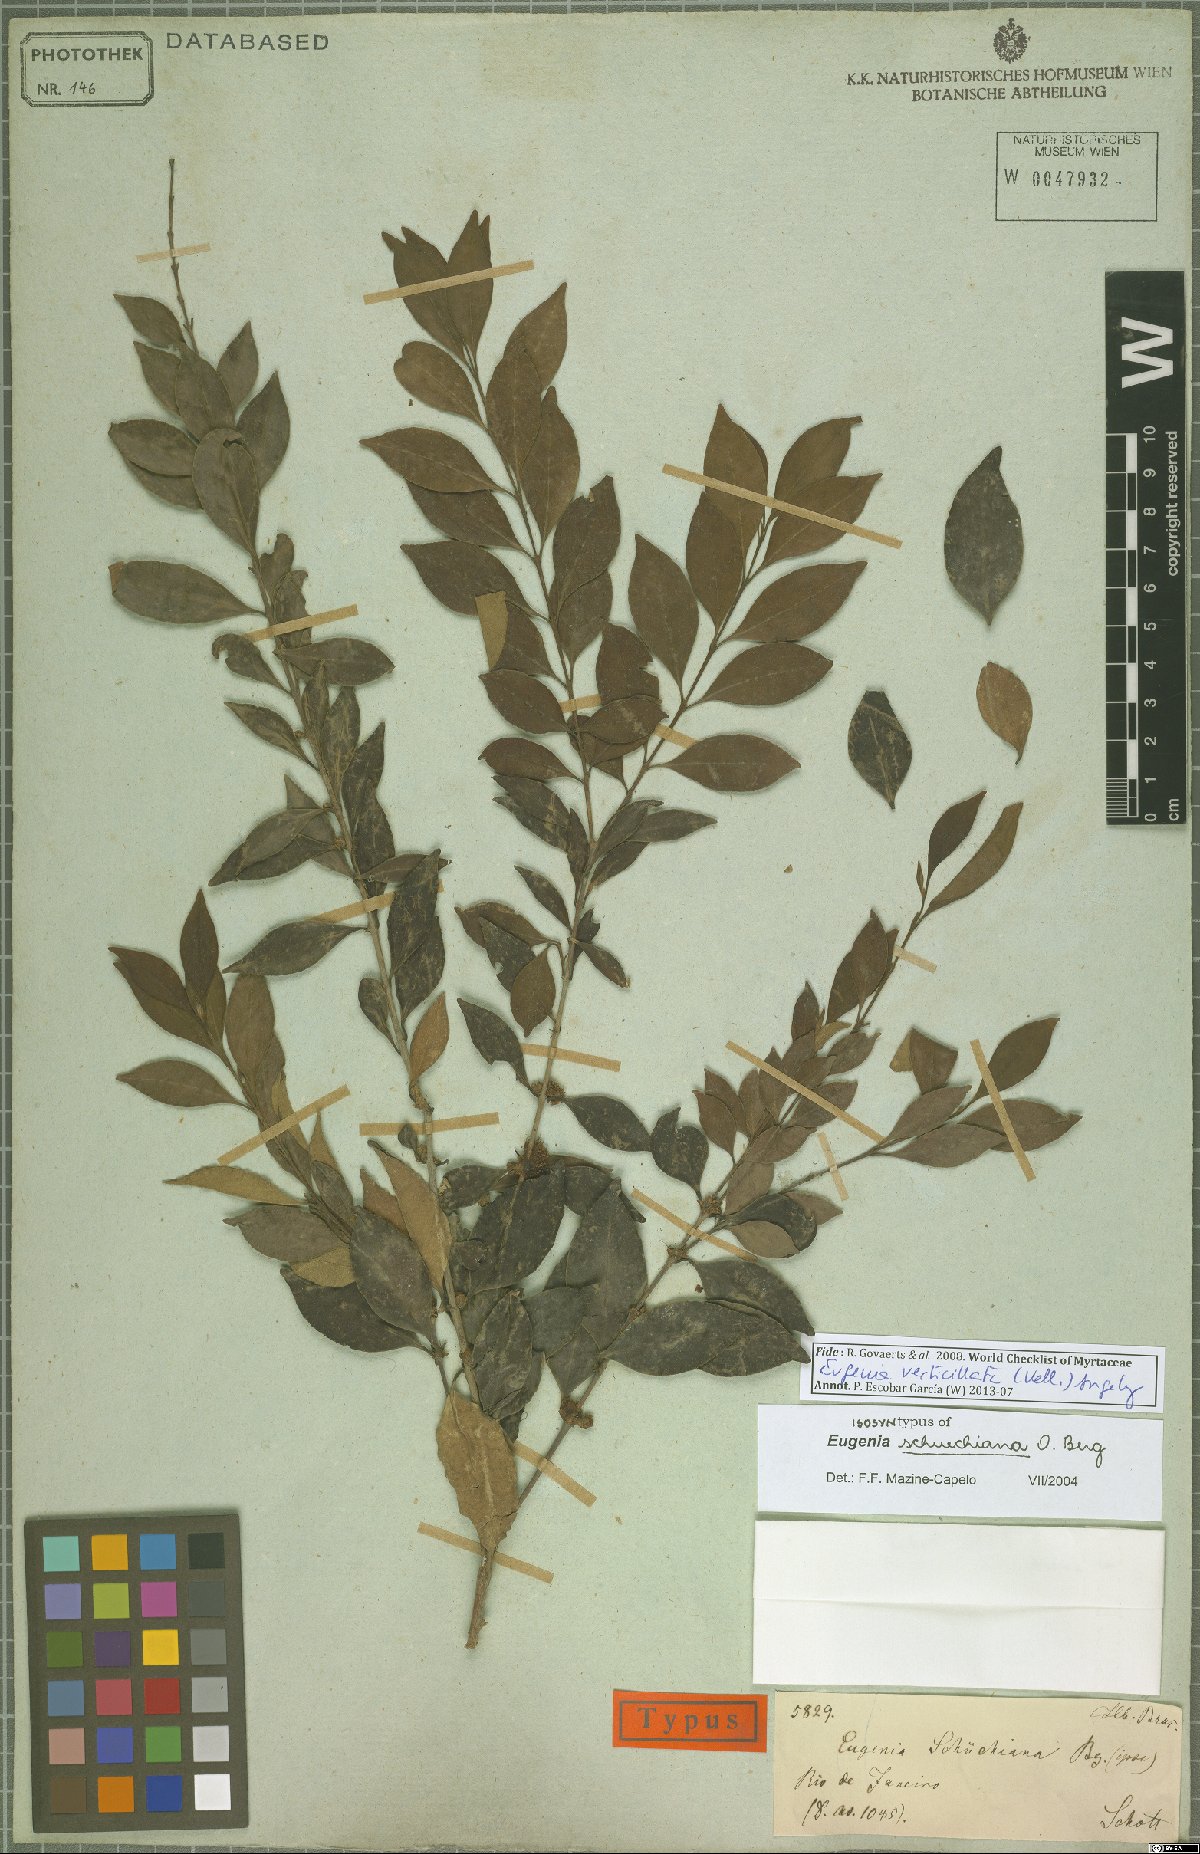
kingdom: Plantae
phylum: Tracheophyta
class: Magnoliopsida
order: Myrtales
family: Myrtaceae
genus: Eugenia
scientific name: Eugenia verticillata
